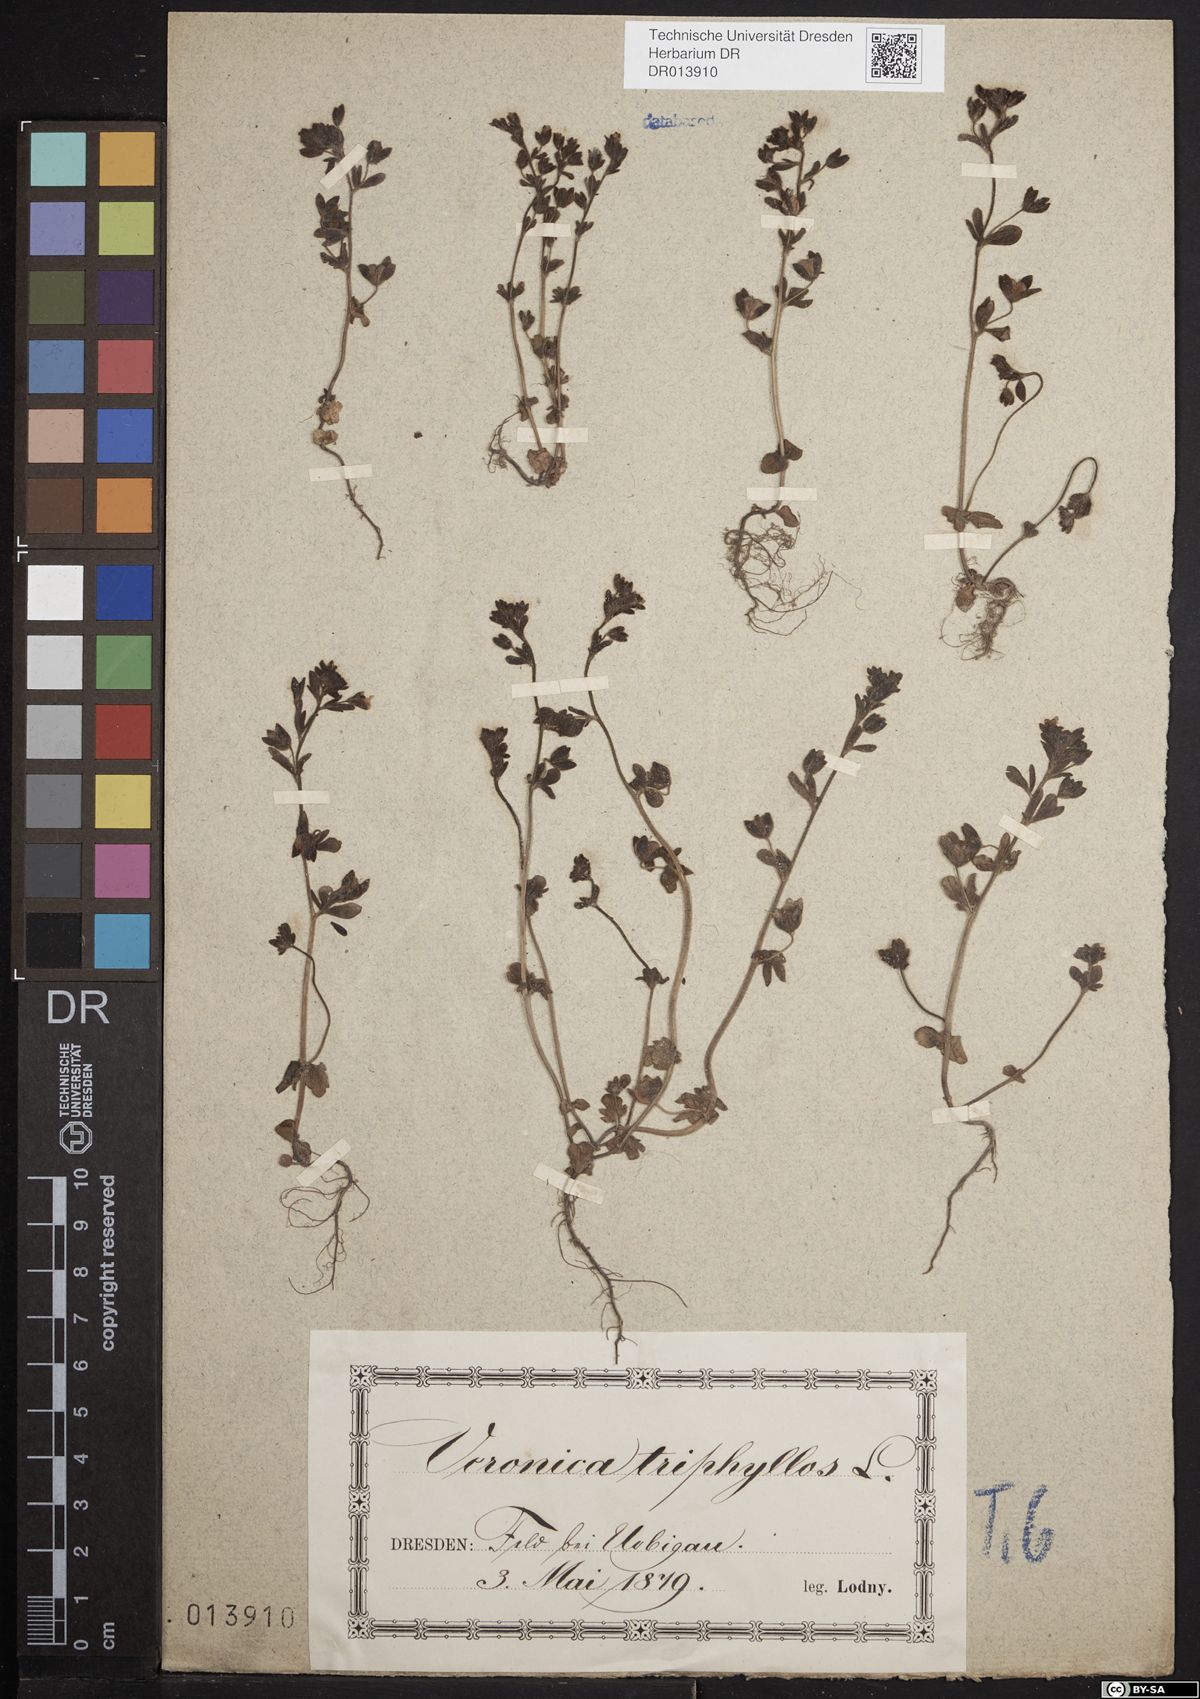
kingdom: Plantae
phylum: Tracheophyta
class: Magnoliopsida
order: Lamiales
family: Plantaginaceae
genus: Veronica
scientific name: Veronica triphyllos
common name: Fingered speedwell
